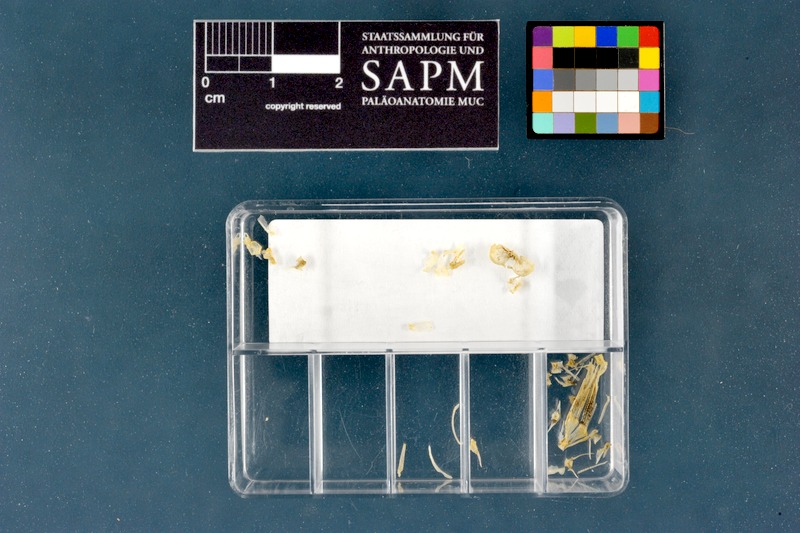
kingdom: Animalia
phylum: Chordata
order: Cypriniformes
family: Nemacheilidae
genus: Barbatula
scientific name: Barbatula barbatula
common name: Stone loach
